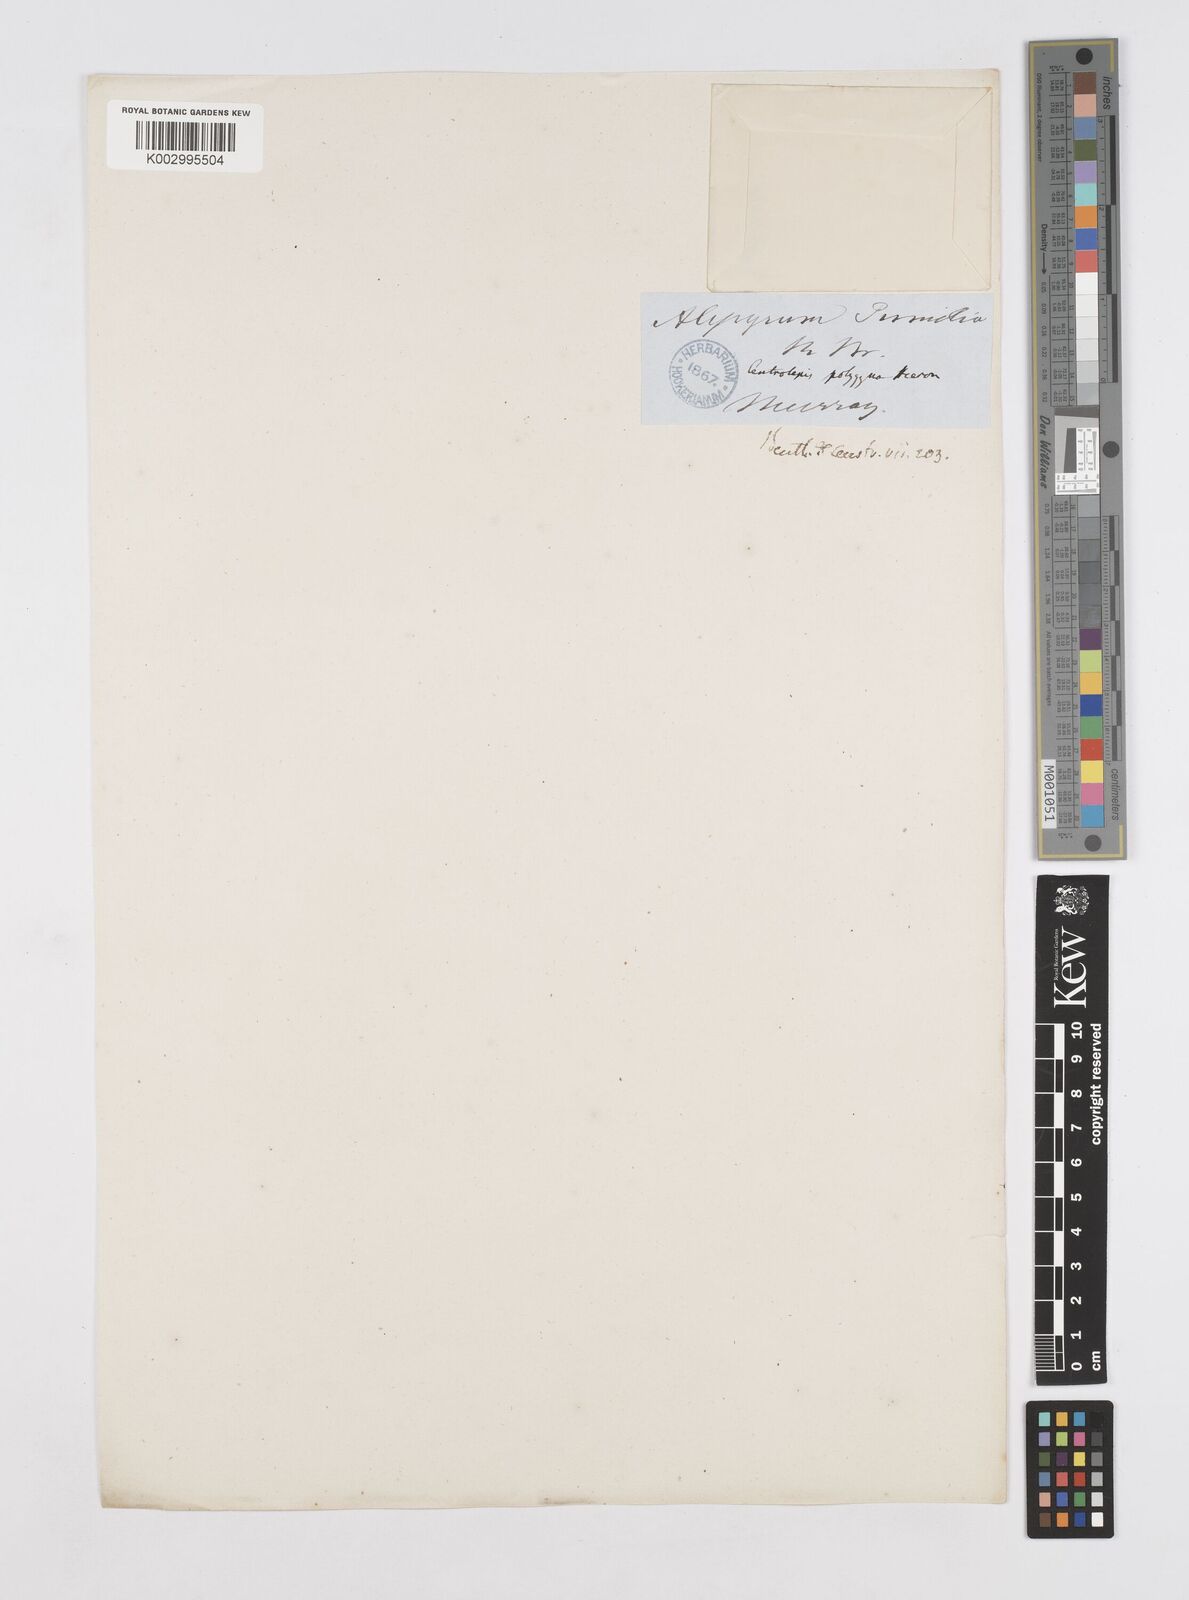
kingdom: Plantae
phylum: Tracheophyta
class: Liliopsida
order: Poales
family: Restionaceae
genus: Centrolepis
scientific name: Centrolepis polygyna
